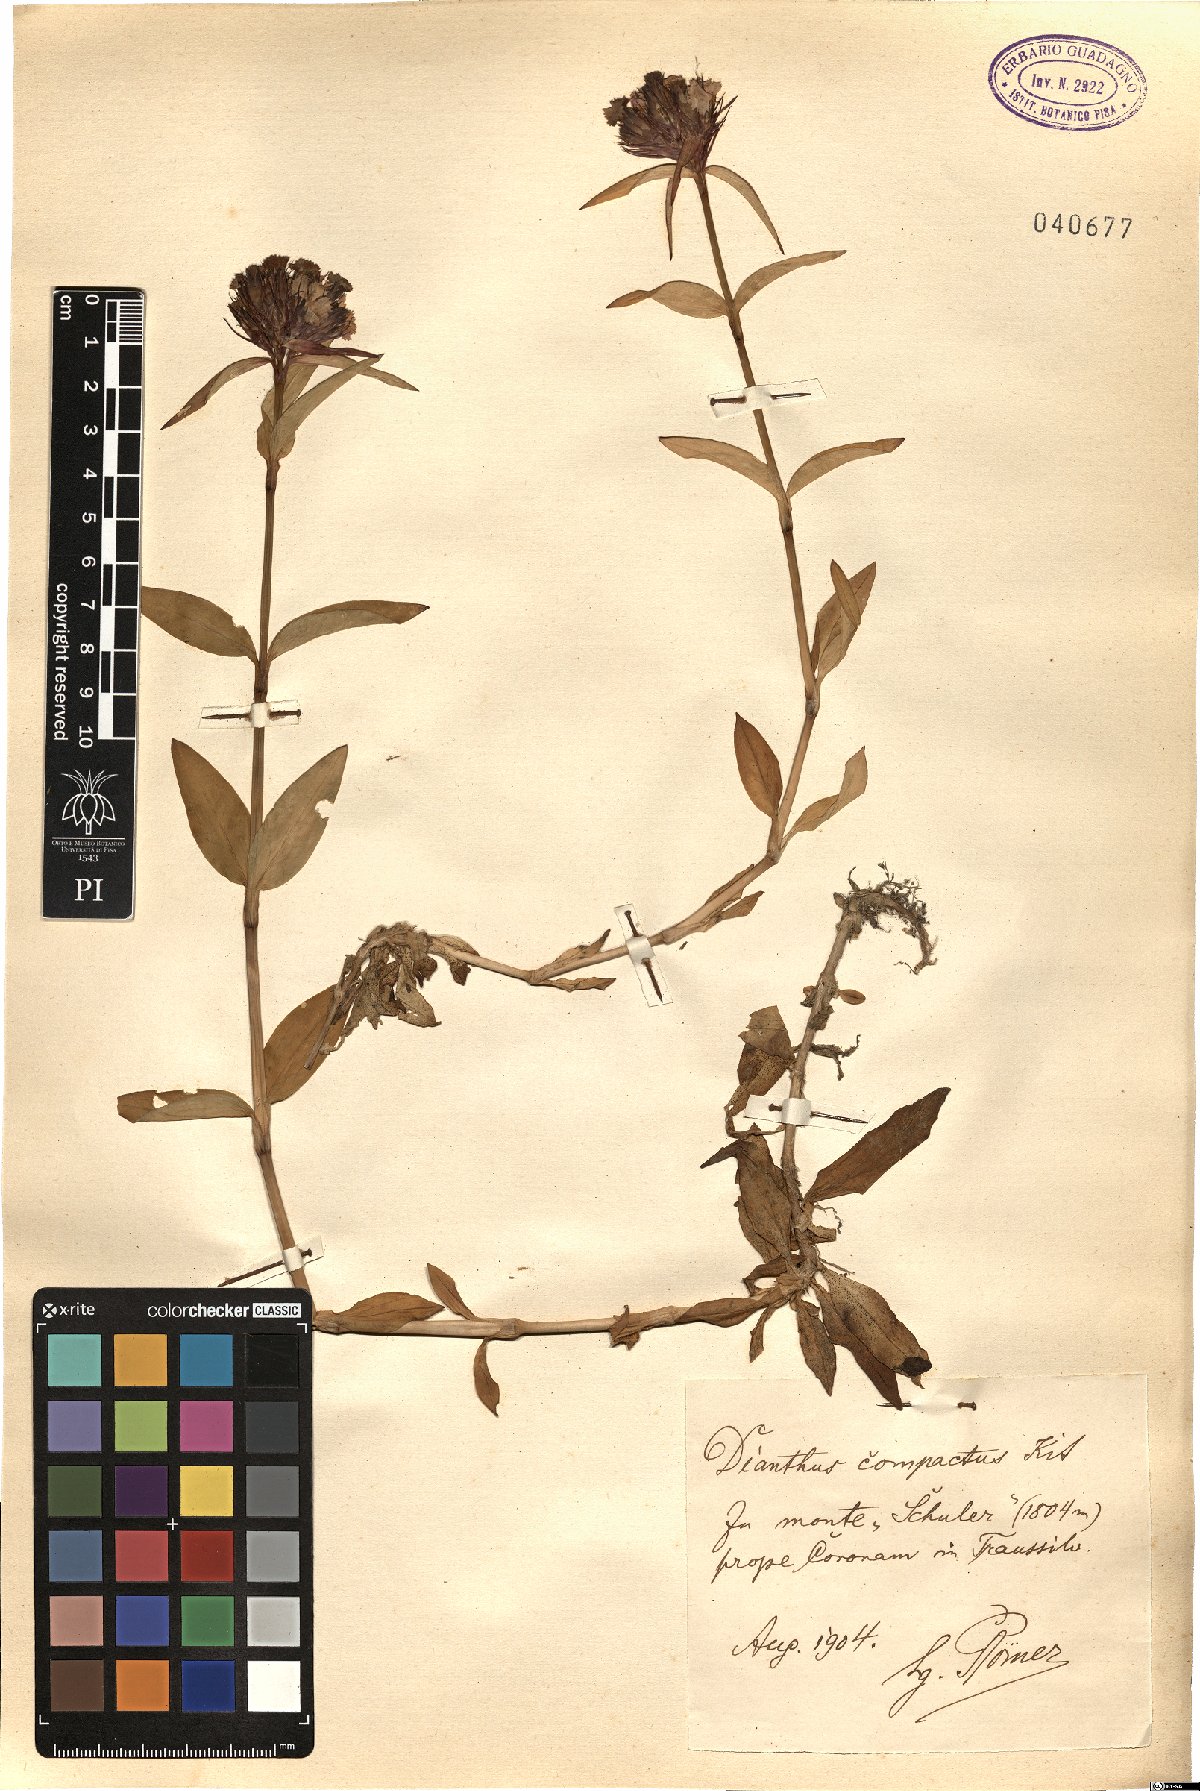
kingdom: Plantae
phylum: Tracheophyta
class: Magnoliopsida
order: Caryophyllales
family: Caryophyllaceae
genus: Dianthus
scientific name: Dianthus barbatus
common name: Sweet-william
